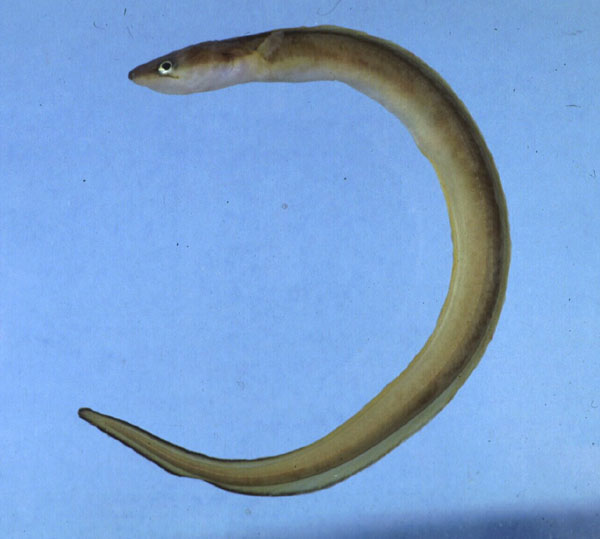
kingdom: Animalia
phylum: Chordata
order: Anguilliformes
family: Congridae
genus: Conger
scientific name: Conger cinereus
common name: Moustache conger
